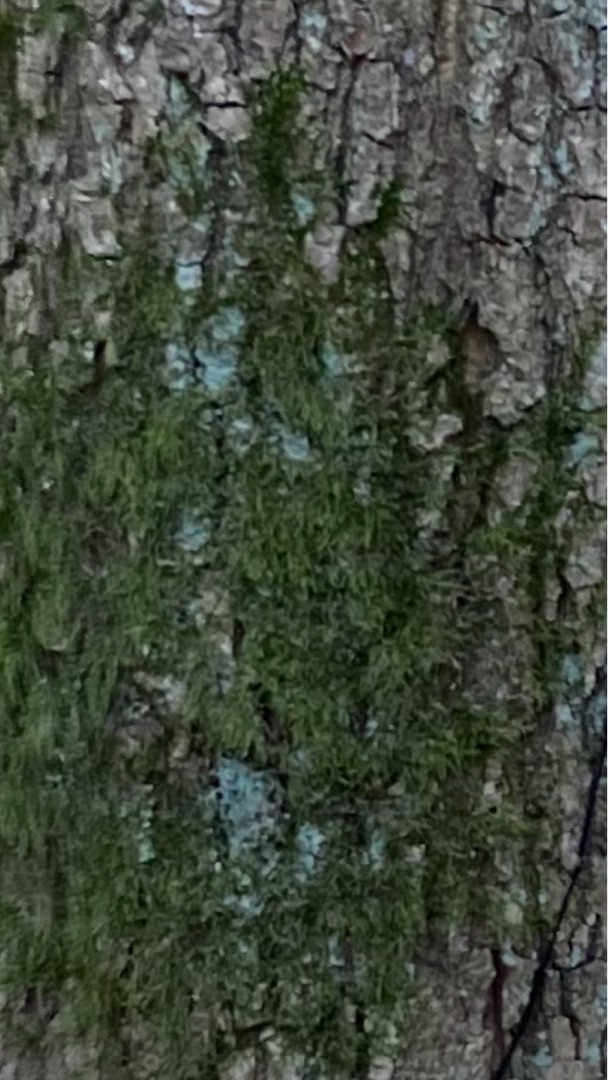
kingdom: Plantae
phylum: Bryophyta
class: Bryopsida
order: Hypnales
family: Hypnaceae
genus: Hypnum
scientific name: Hypnum
